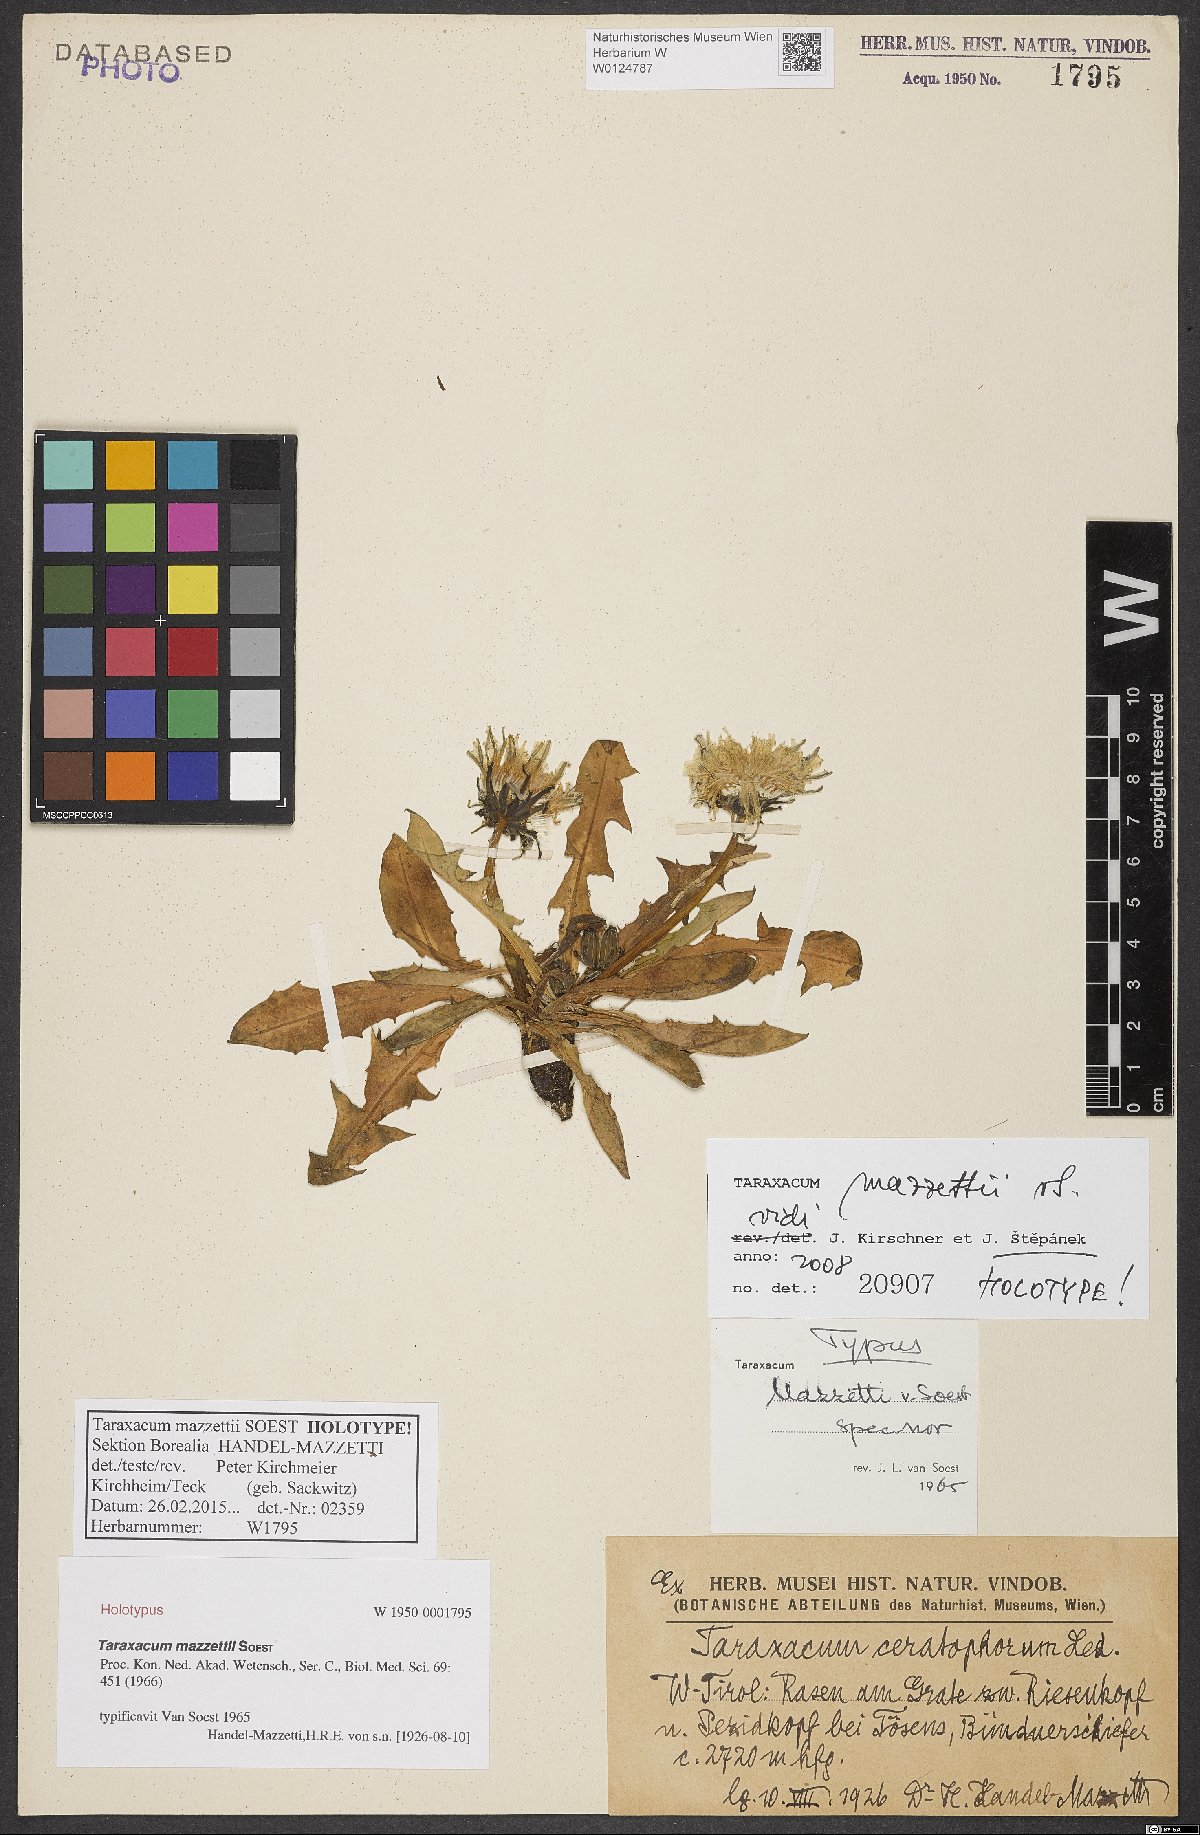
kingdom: Plantae
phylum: Tracheophyta
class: Magnoliopsida
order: Asterales
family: Asteraceae
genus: Taraxacum
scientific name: Taraxacum mazzetii
